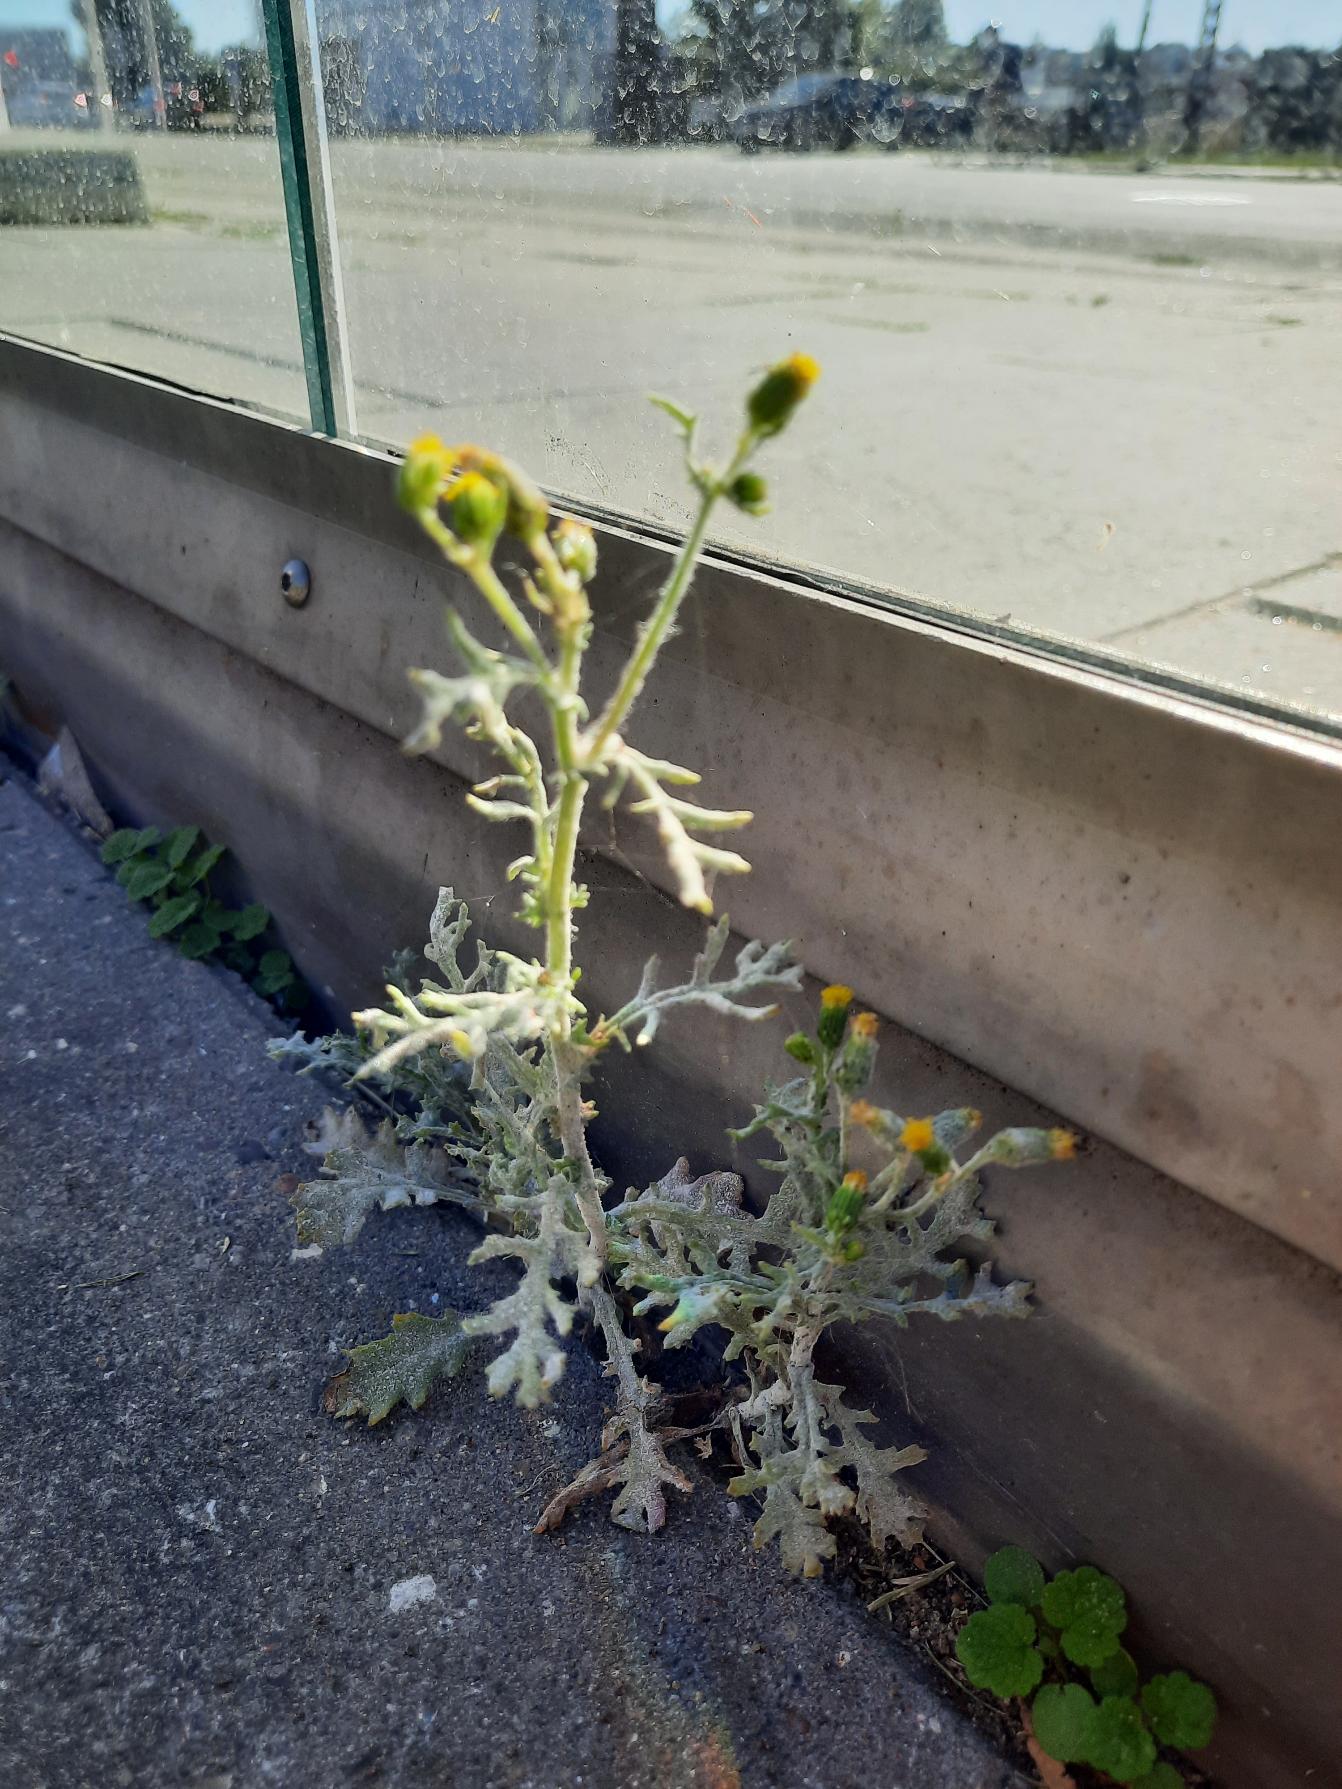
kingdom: Plantae
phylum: Tracheophyta
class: Magnoliopsida
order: Asterales
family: Asteraceae
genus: Senecio
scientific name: Senecio viscosus
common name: Klæbrig brandbæger
